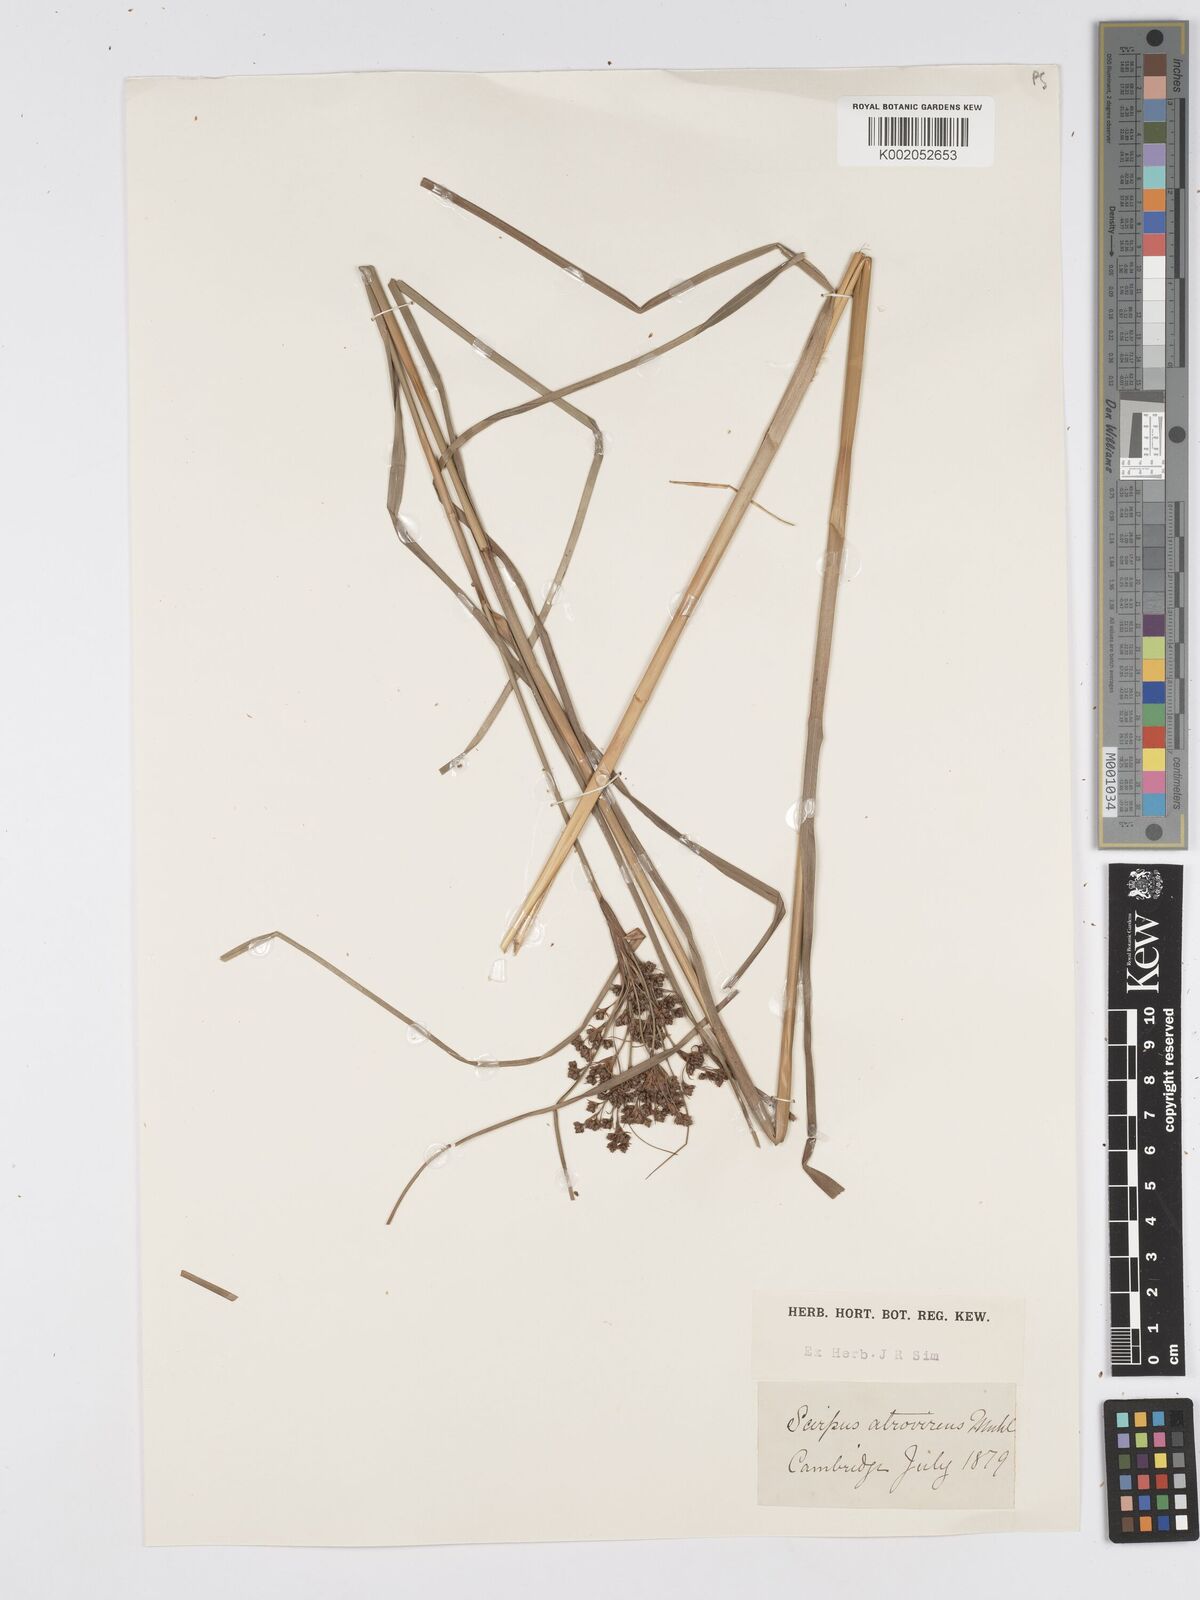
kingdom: Plantae
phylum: Tracheophyta
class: Liliopsida
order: Poales
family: Cyperaceae
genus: Scirpus
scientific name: Scirpus atrovirens
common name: Black bulrush
